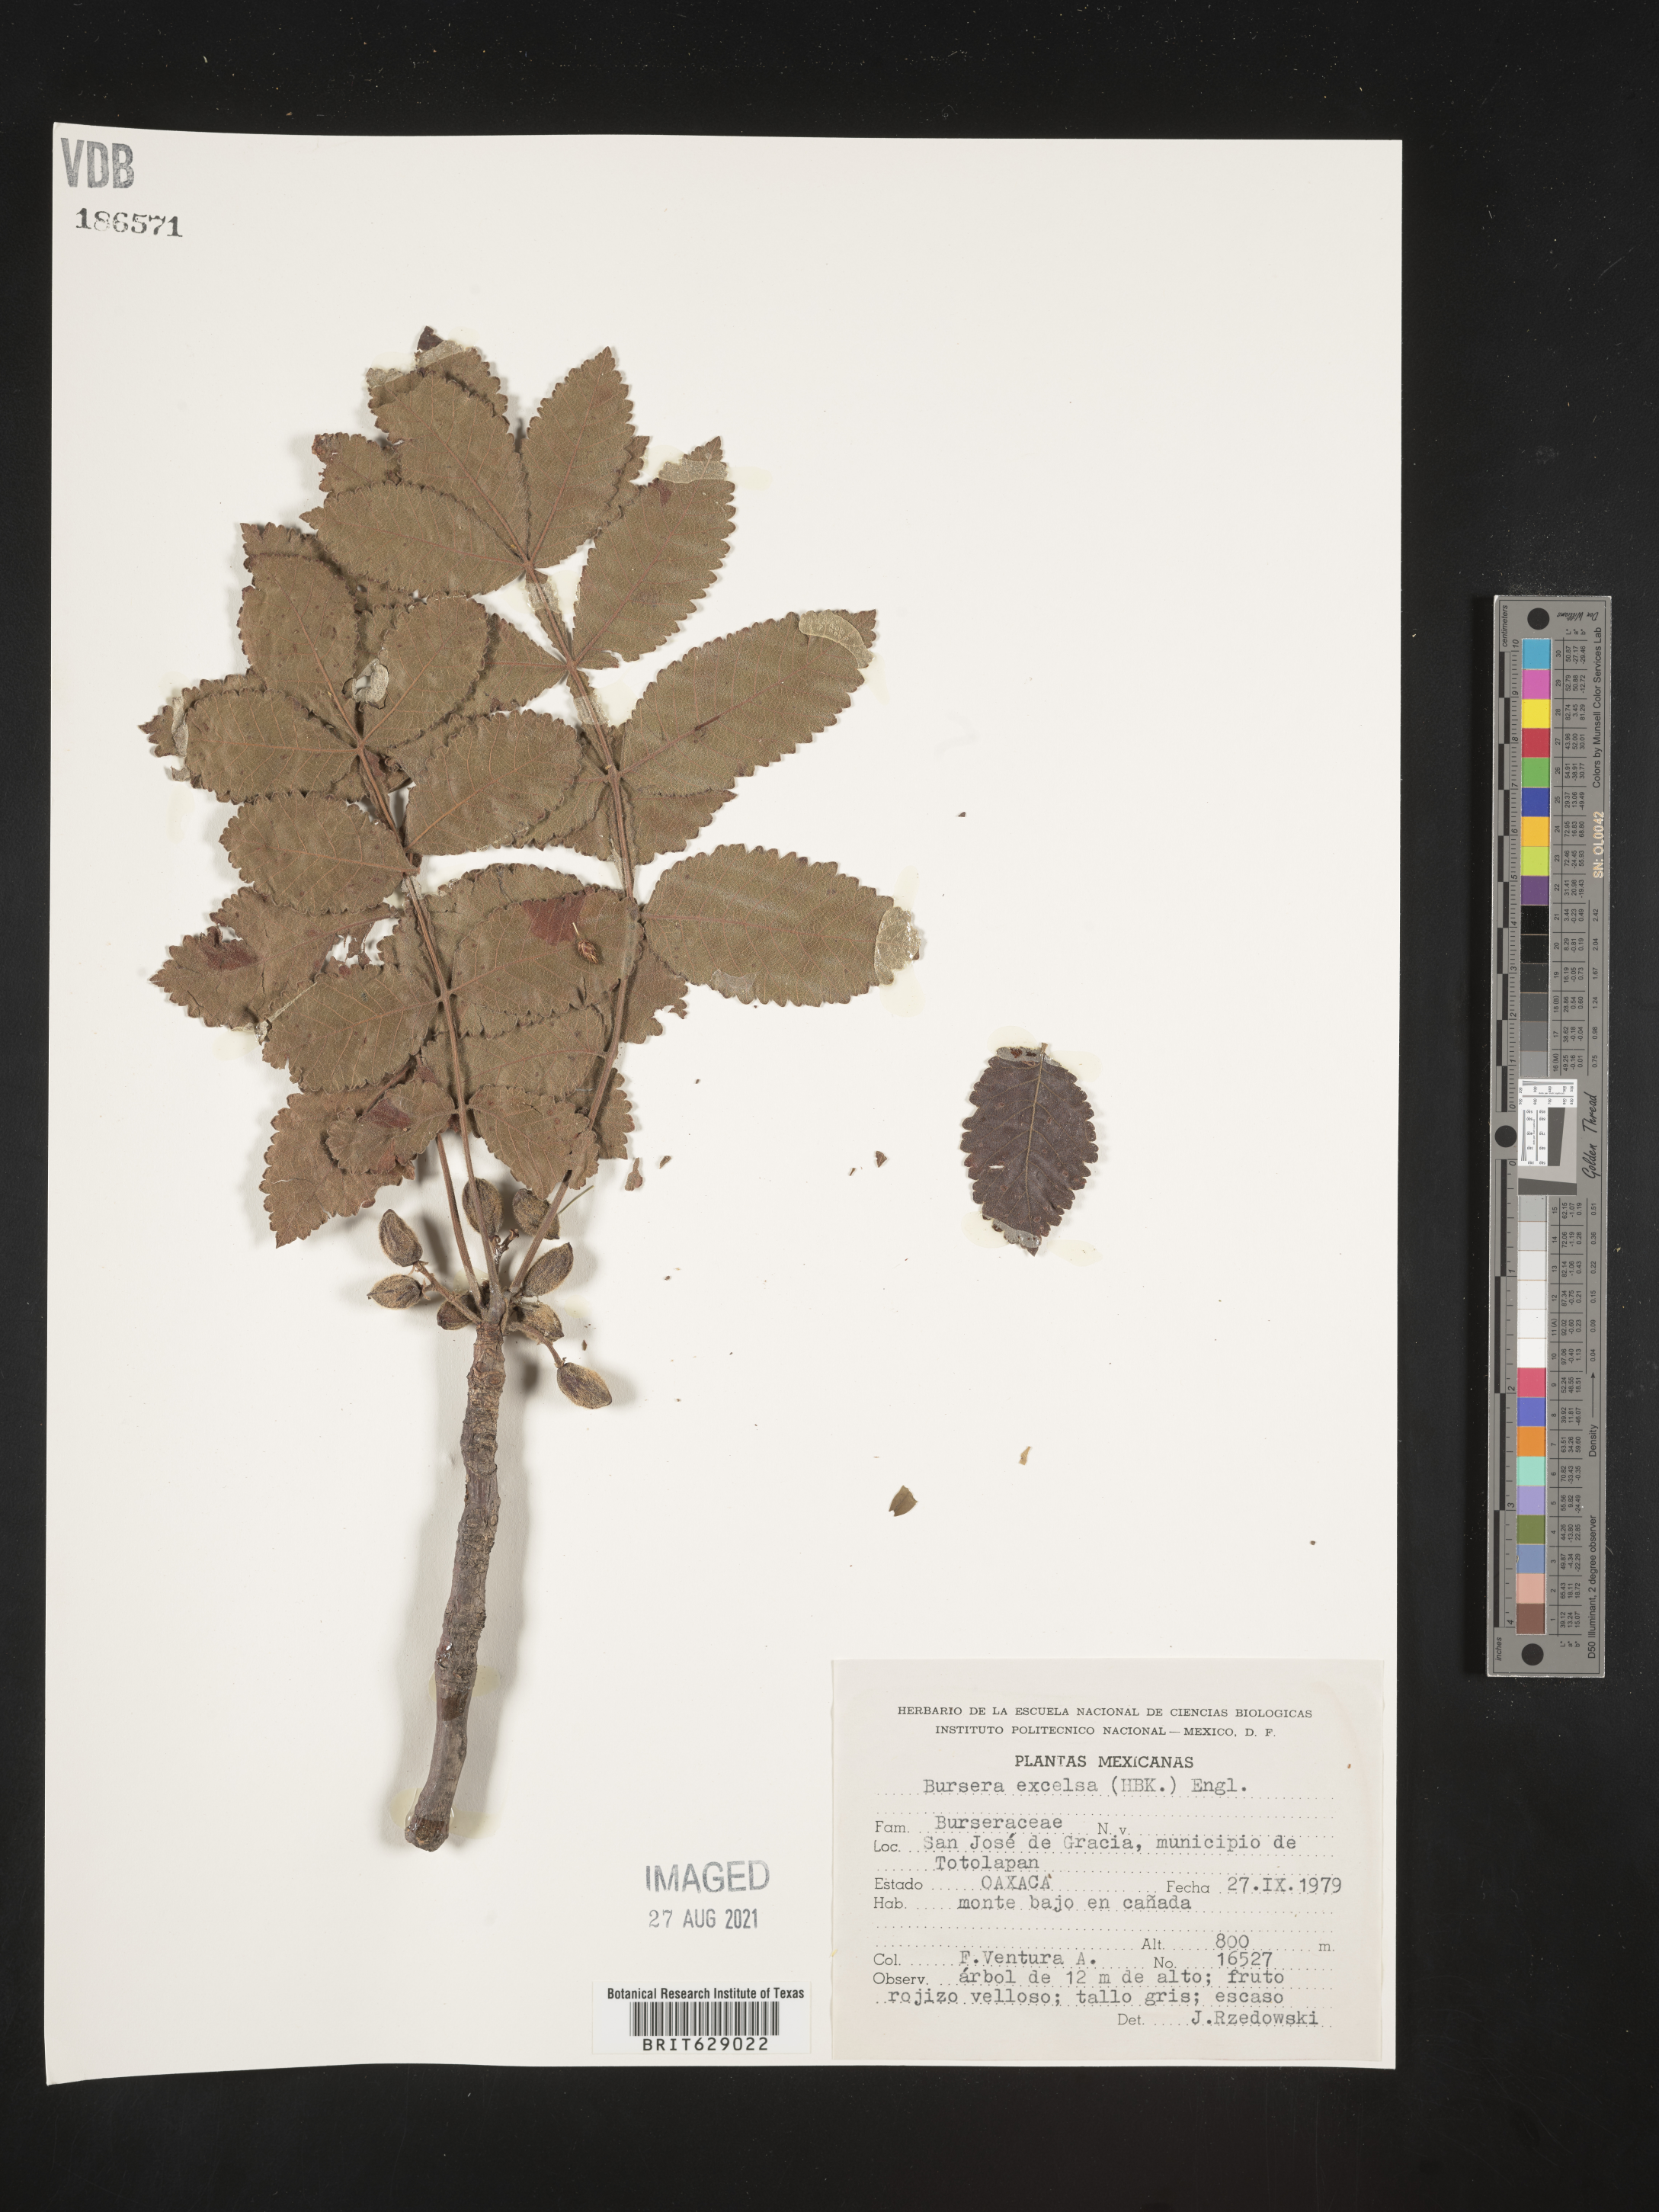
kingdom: Plantae
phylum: Tracheophyta
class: Magnoliopsida
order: Sapindales
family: Burseraceae
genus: Bursera
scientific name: Bursera
